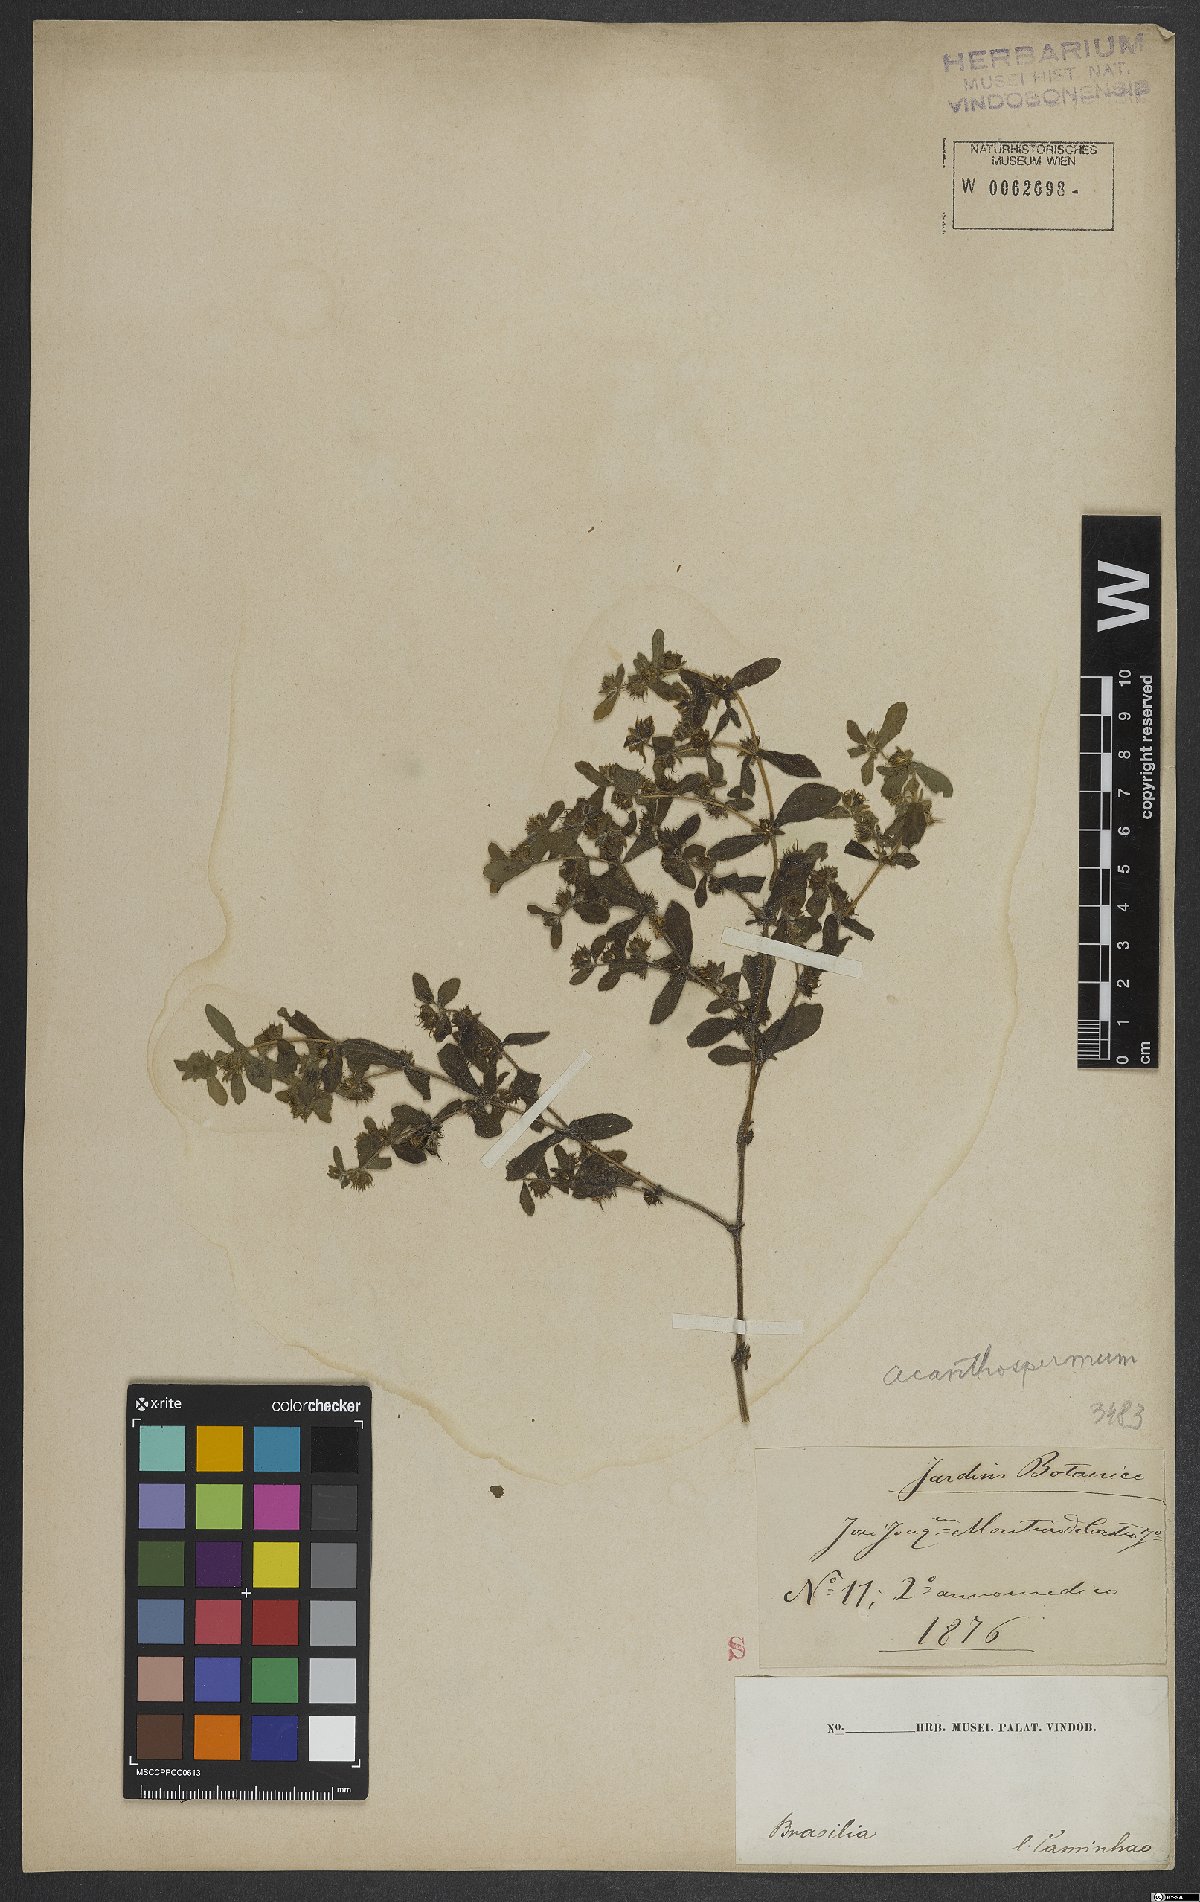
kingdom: Plantae
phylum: Tracheophyta
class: Magnoliopsida
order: Asterales
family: Asteraceae
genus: Acanthospermum
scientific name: Acanthospermum hispidum
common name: Hispid starbur
